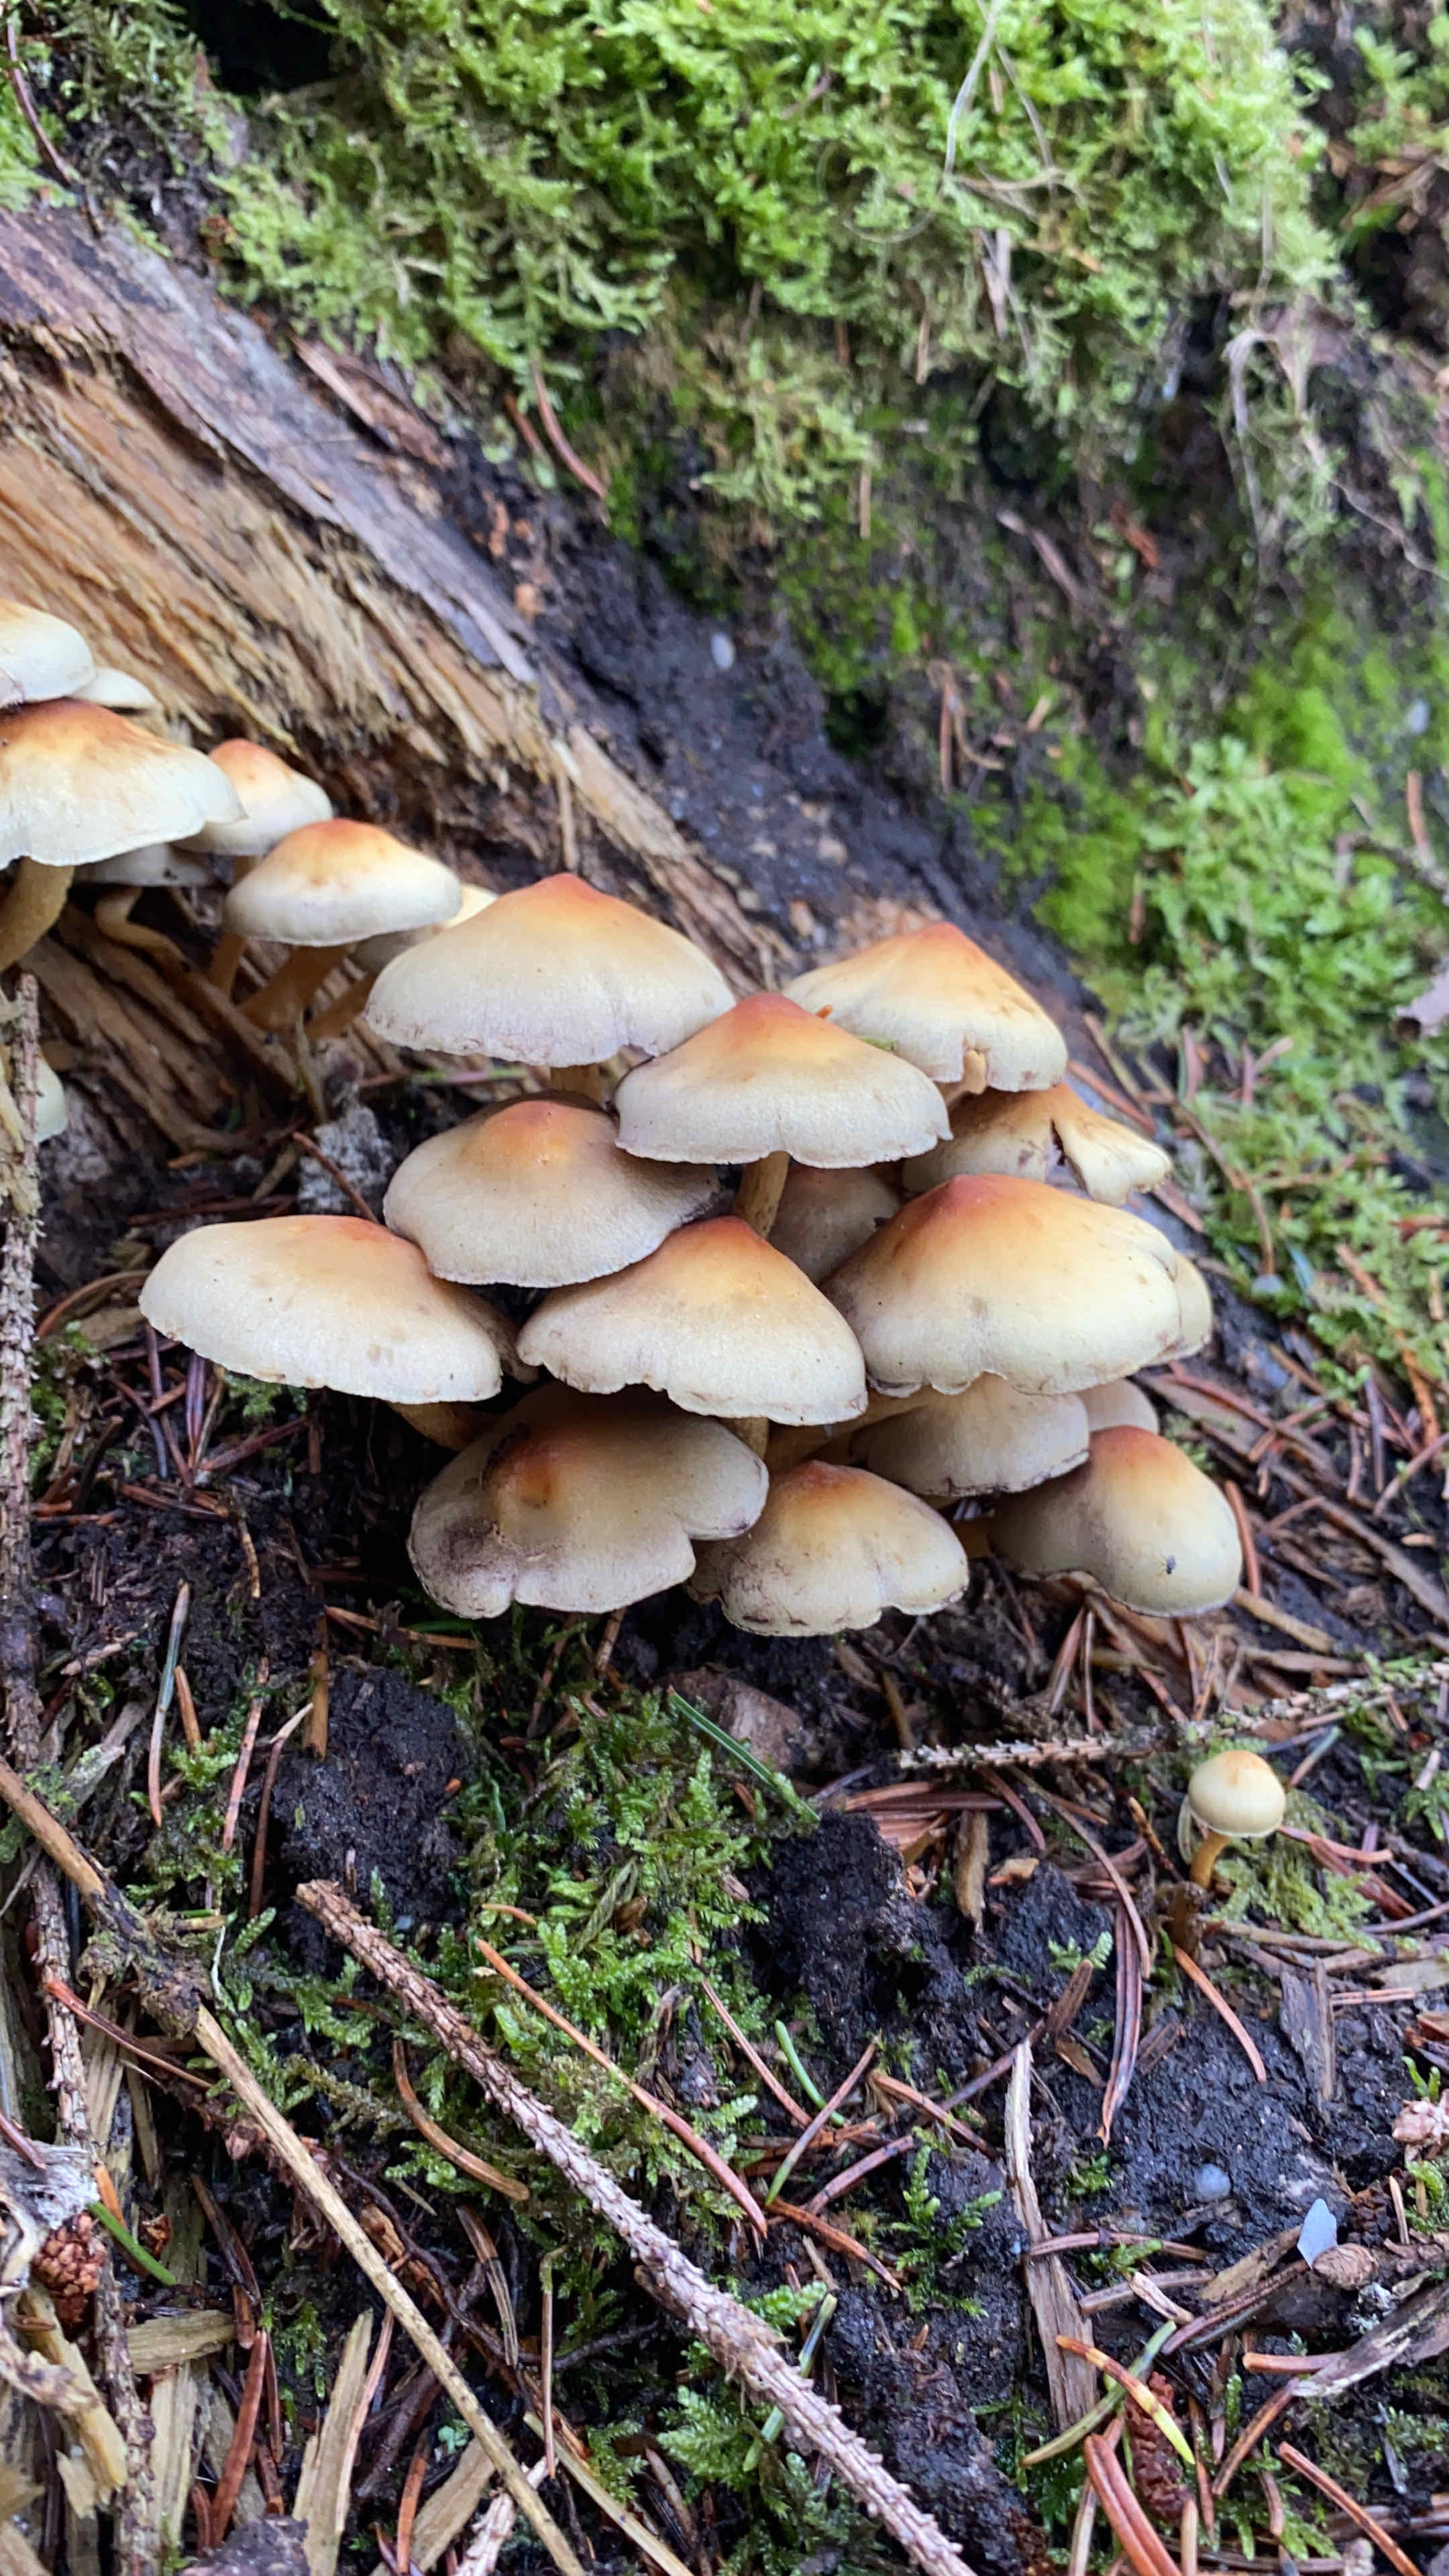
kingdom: Fungi
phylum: Basidiomycota
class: Agaricomycetes
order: Agaricales
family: Strophariaceae
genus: Hypholoma
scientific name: Hypholoma fasciculare
